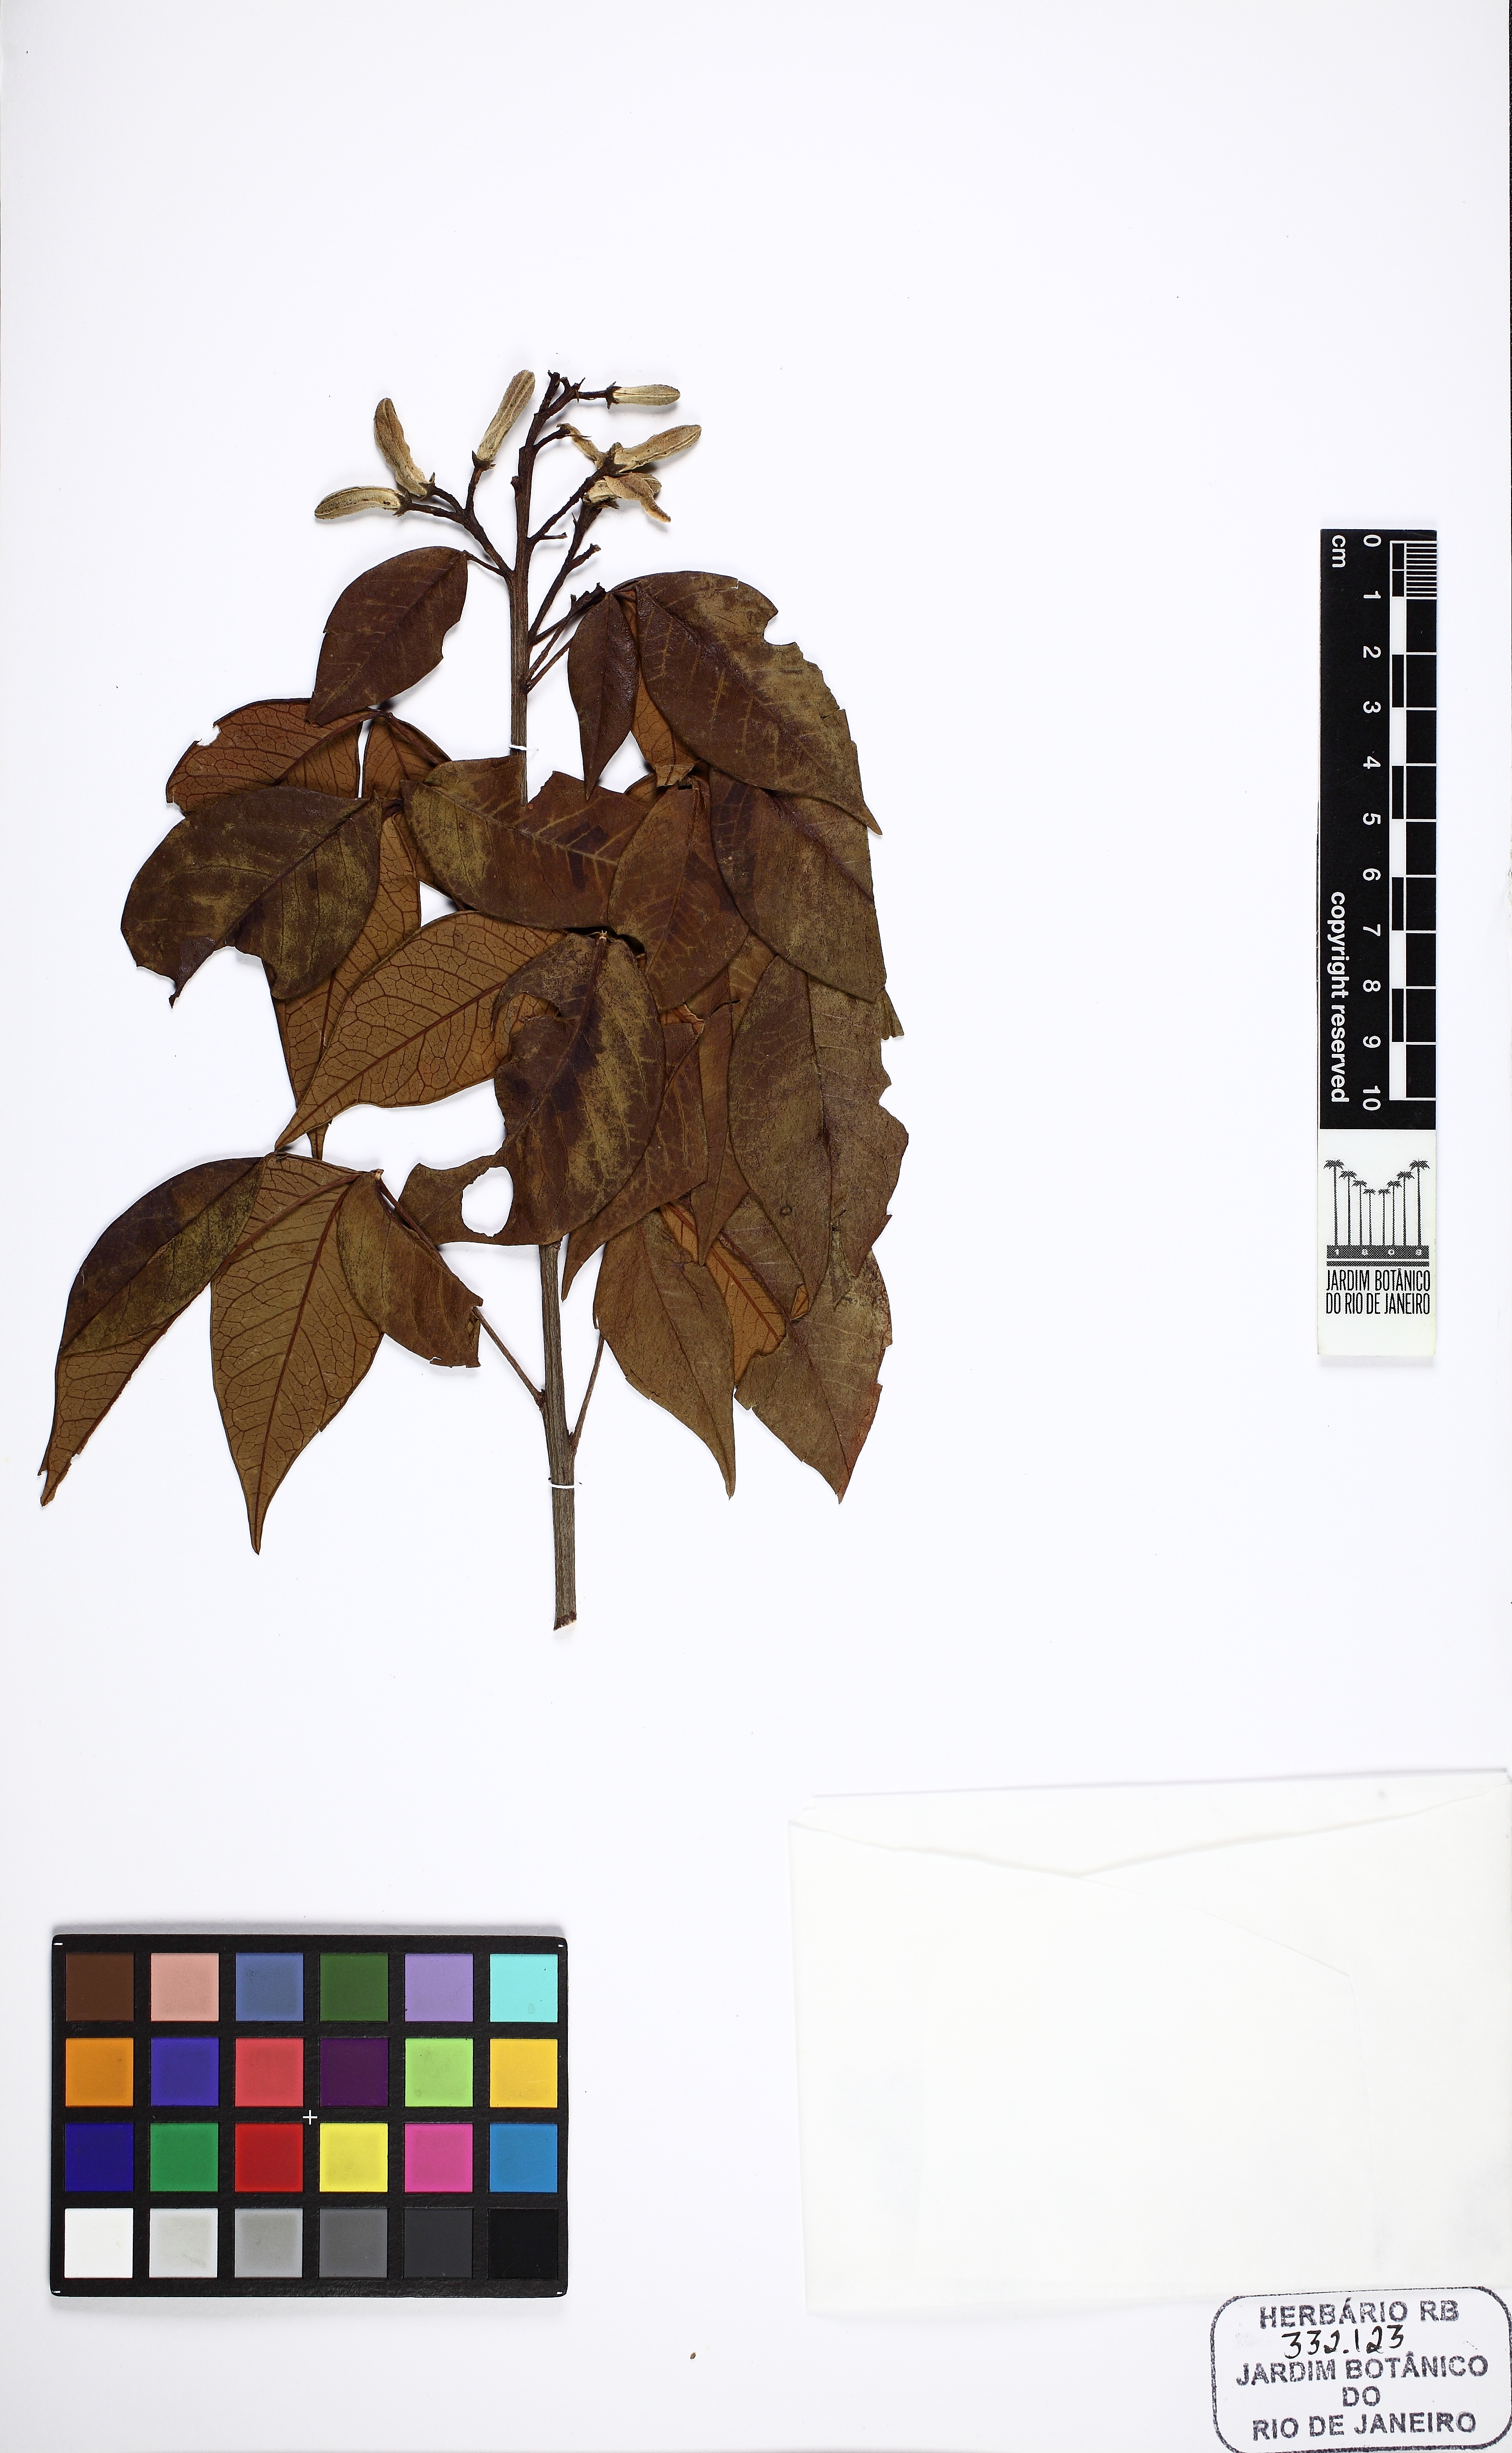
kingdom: Plantae
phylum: Tracheophyta
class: Magnoliopsida
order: Sapindales
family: Rutaceae
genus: Spiranthera
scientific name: Spiranthera odoratissima
